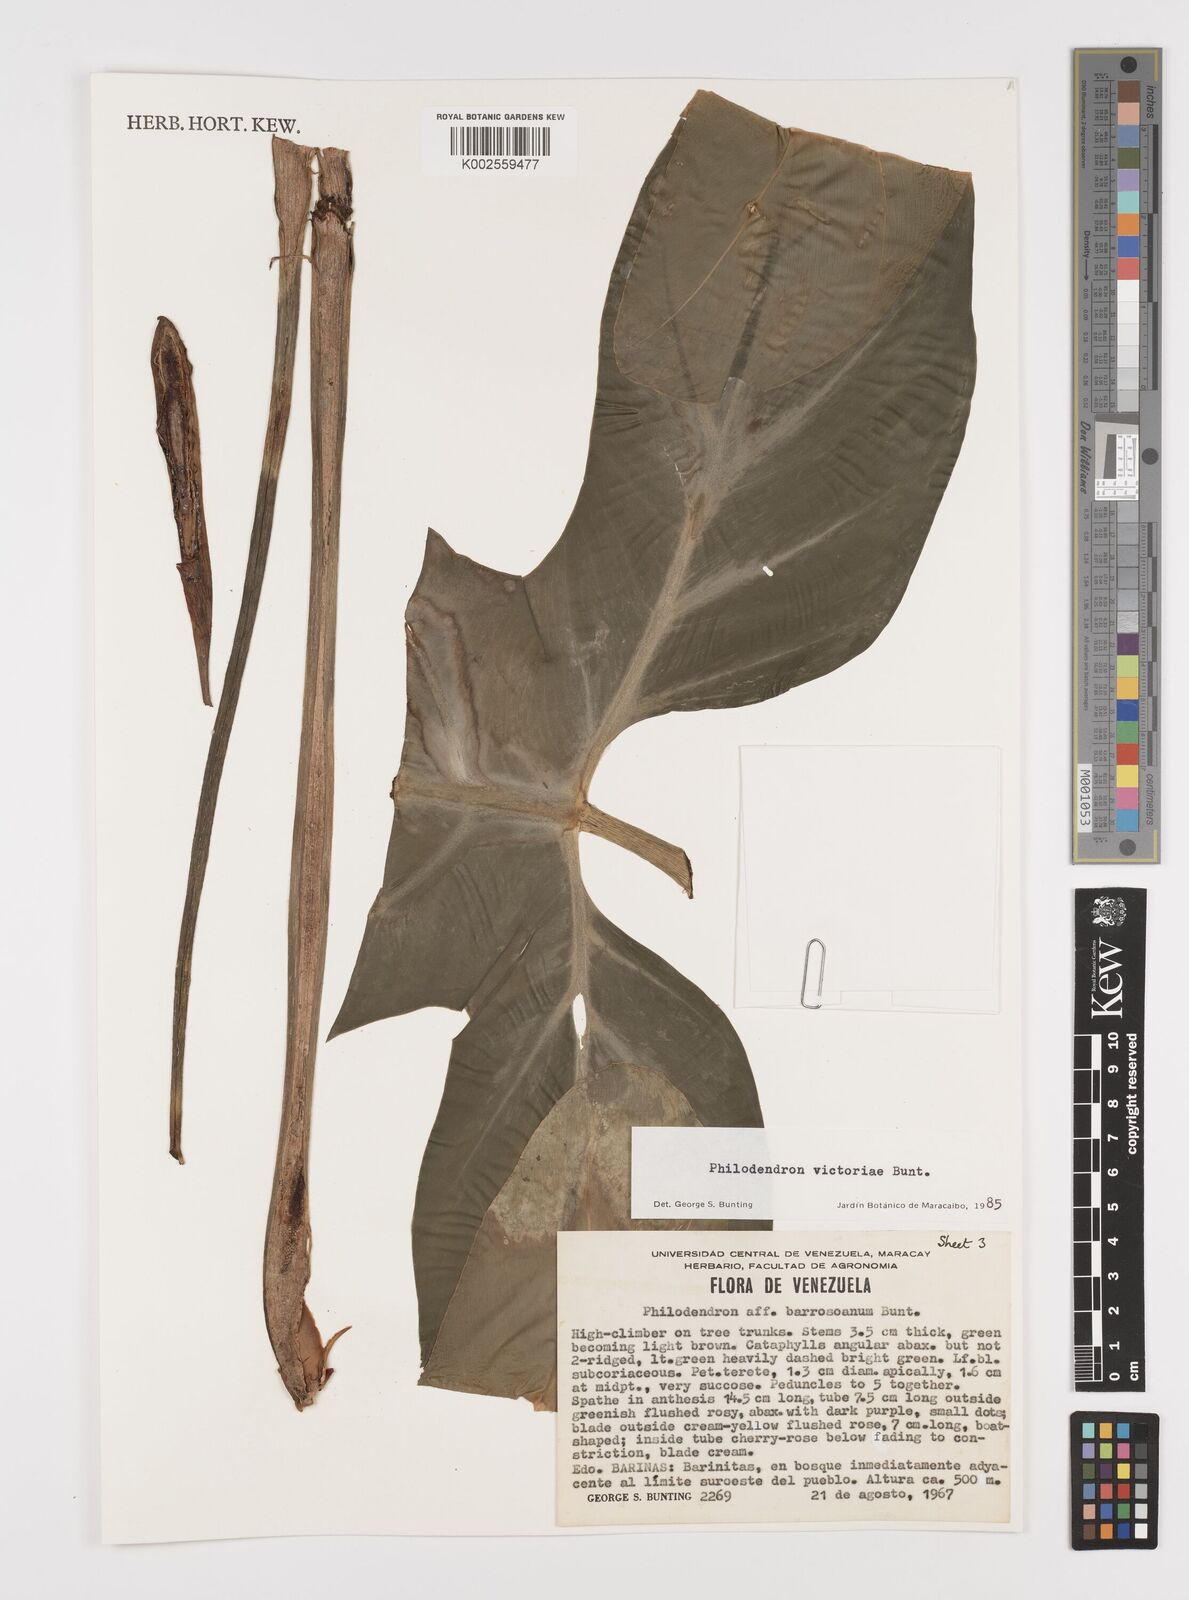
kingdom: Plantae
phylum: Tracheophyta
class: Liliopsida
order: Alismatales
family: Araceae
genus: Philodendron
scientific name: Philodendron victoriae
